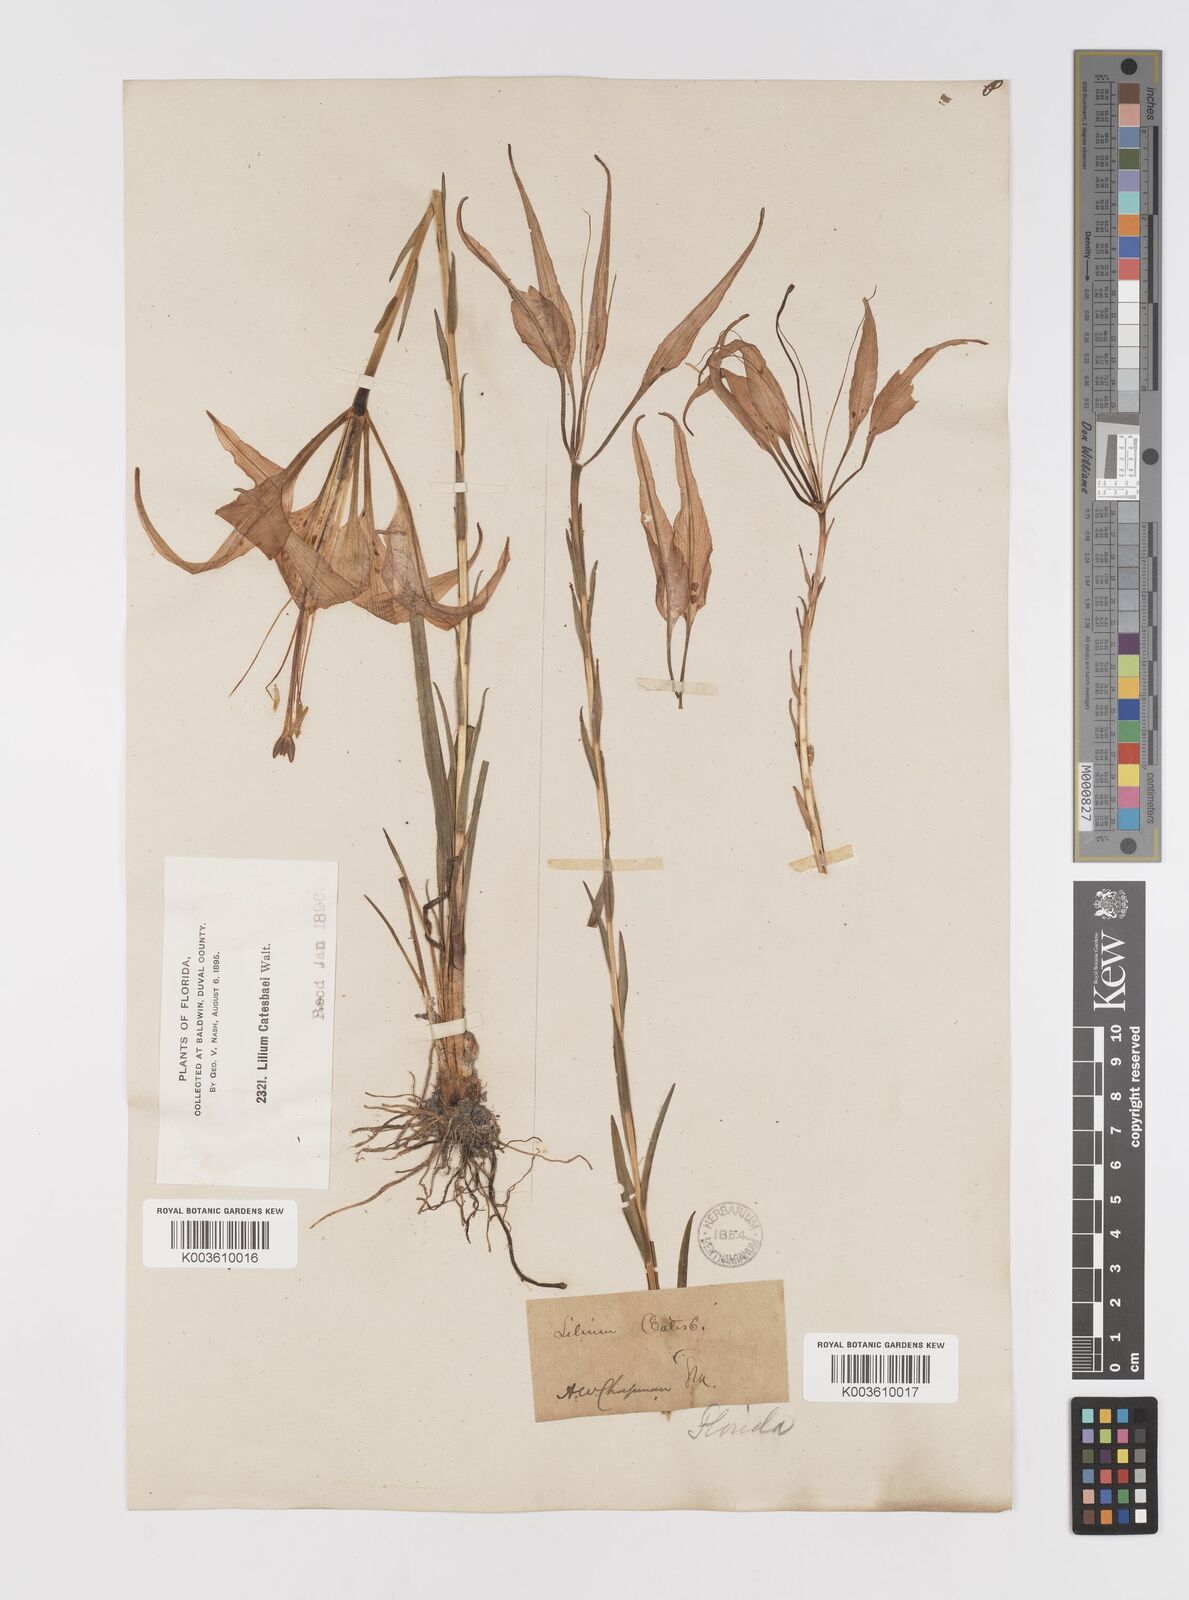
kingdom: Plantae
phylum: Tracheophyta
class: Liliopsida
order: Liliales
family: Liliaceae
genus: Lilium
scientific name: Lilium catesbaei
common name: Catesby's lily
